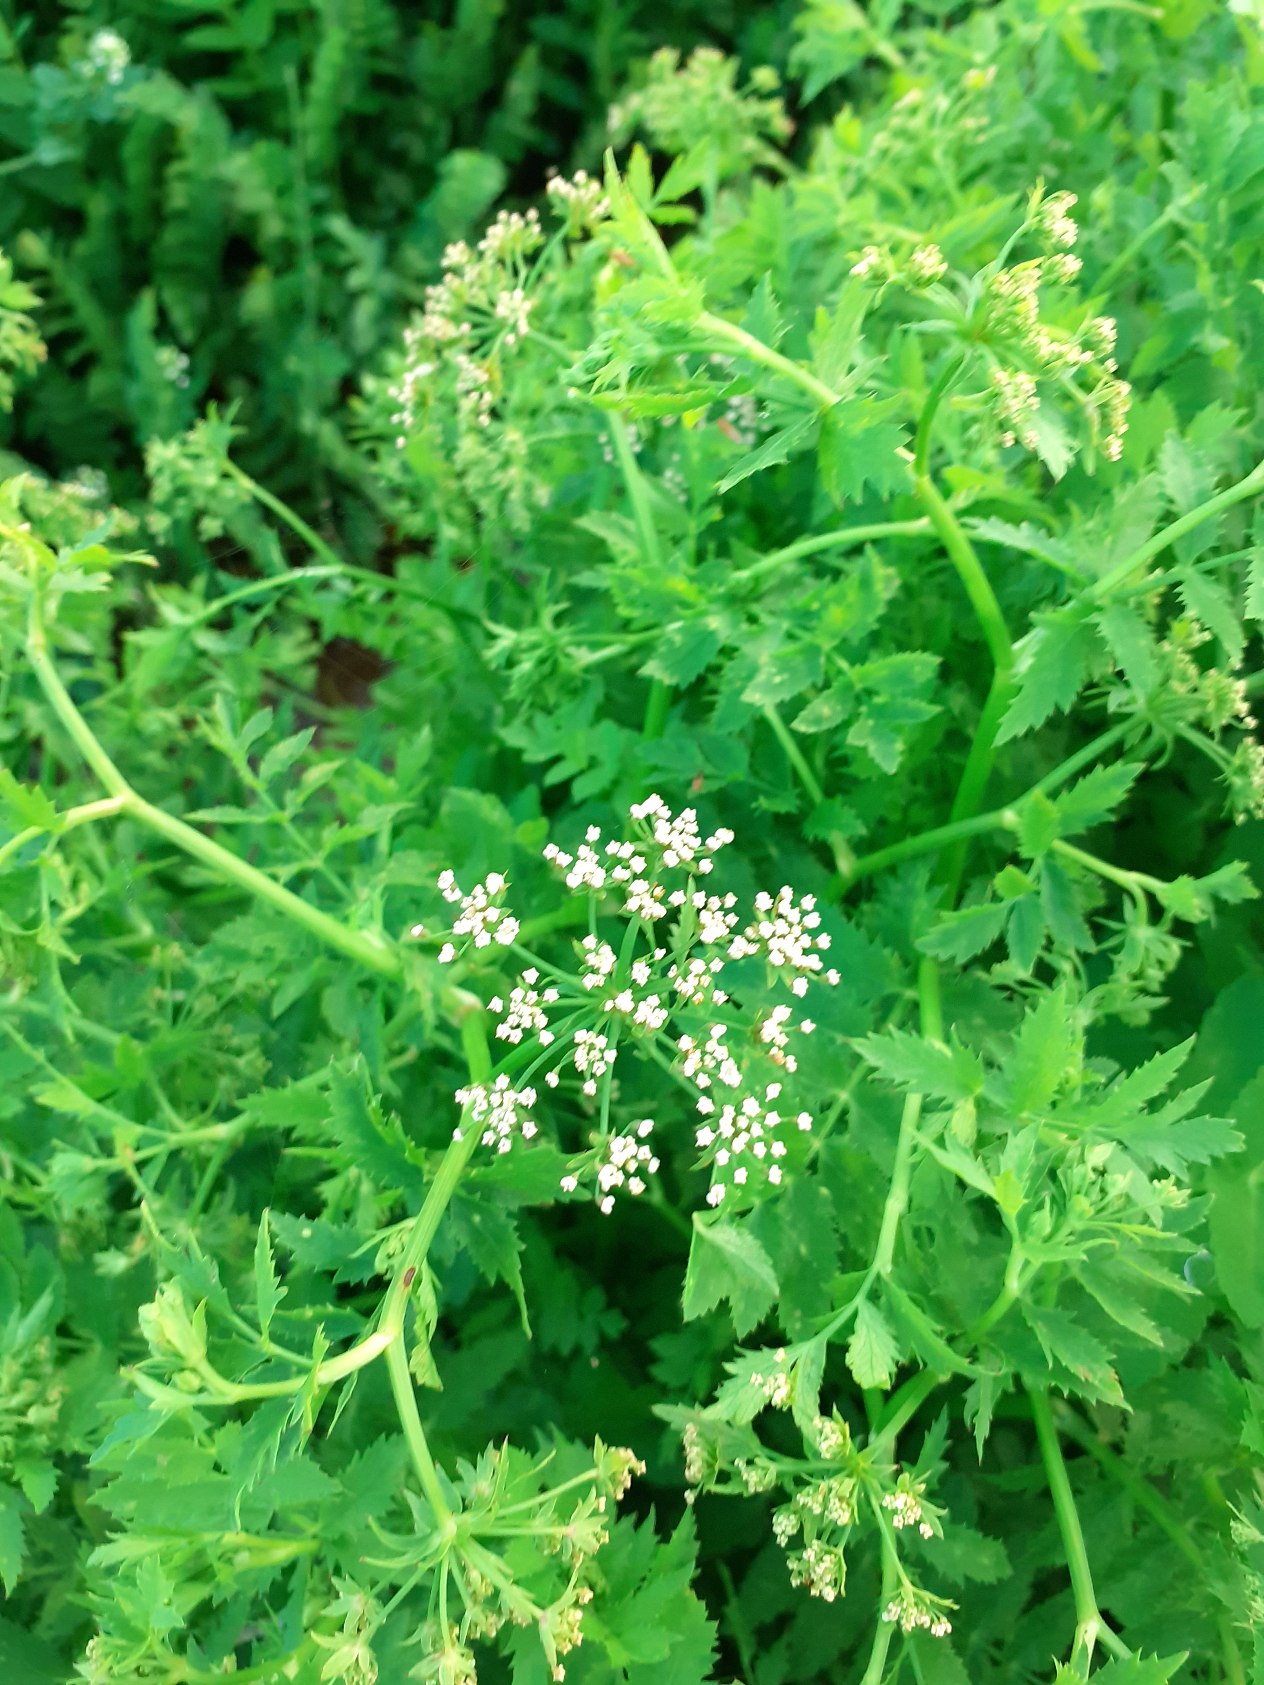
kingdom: Plantae
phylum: Tracheophyta
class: Magnoliopsida
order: Apiales
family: Apiaceae
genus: Berula
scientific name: Berula erecta
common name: Sideskærm
